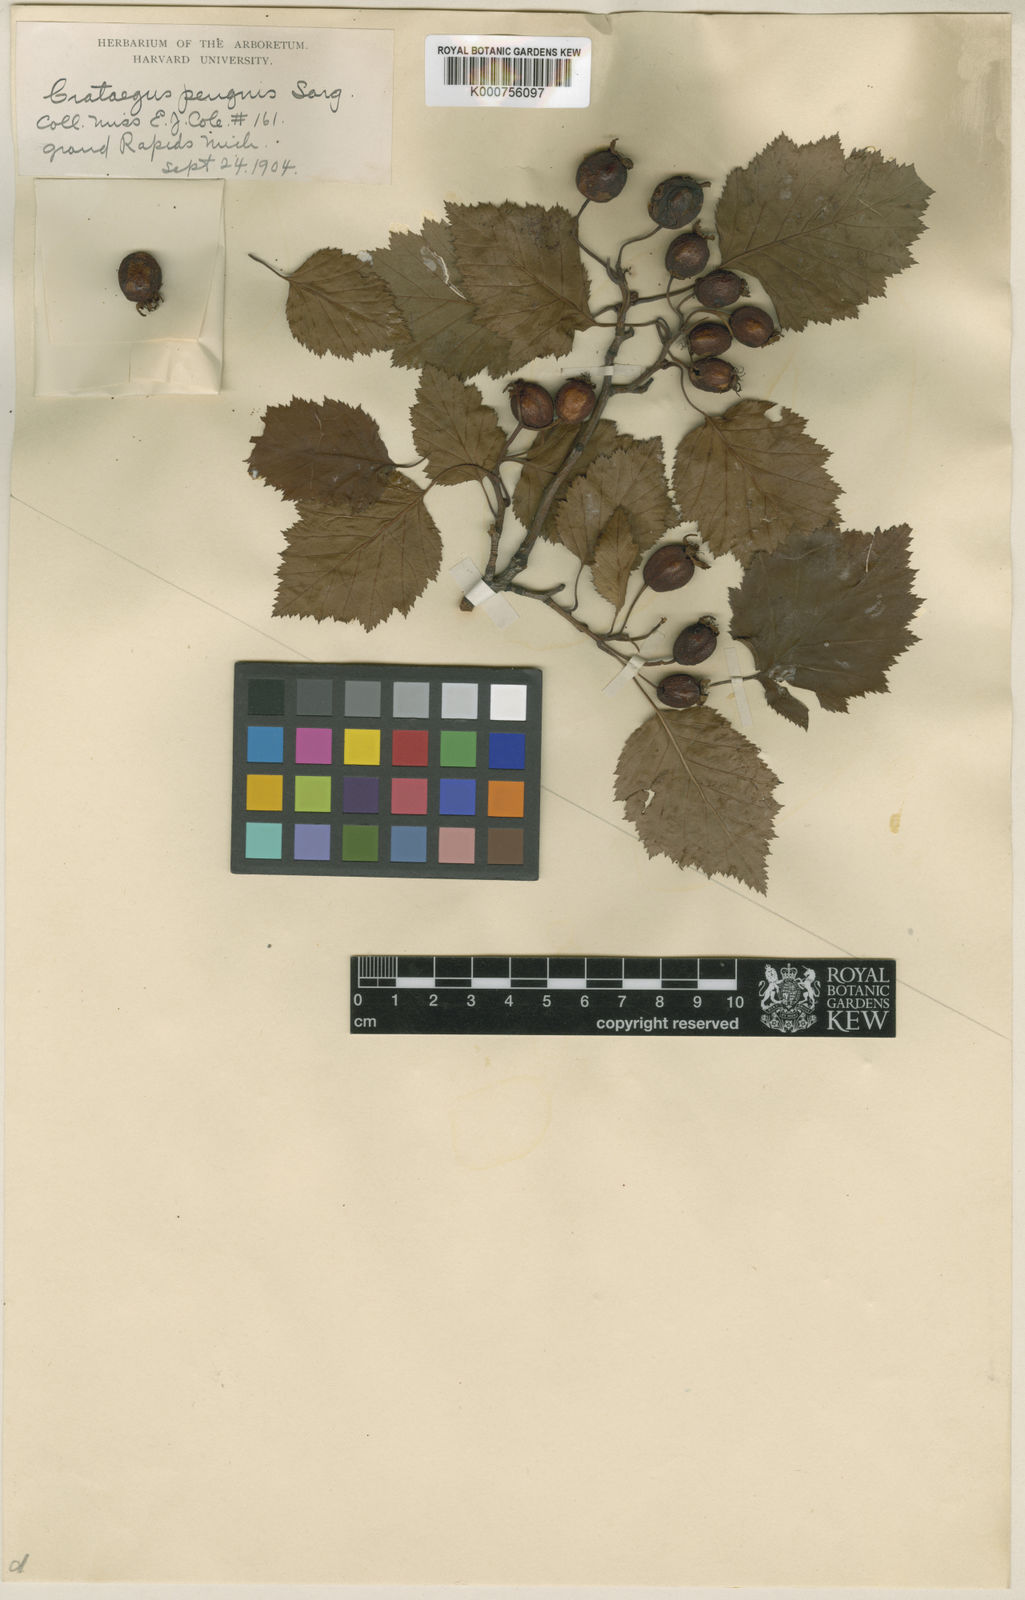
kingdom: Plantae
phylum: Tracheophyta
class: Magnoliopsida
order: Rosales
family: Rosaceae
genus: Crataegus
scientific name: Crataegus scabrida
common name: Rough hawthorn
